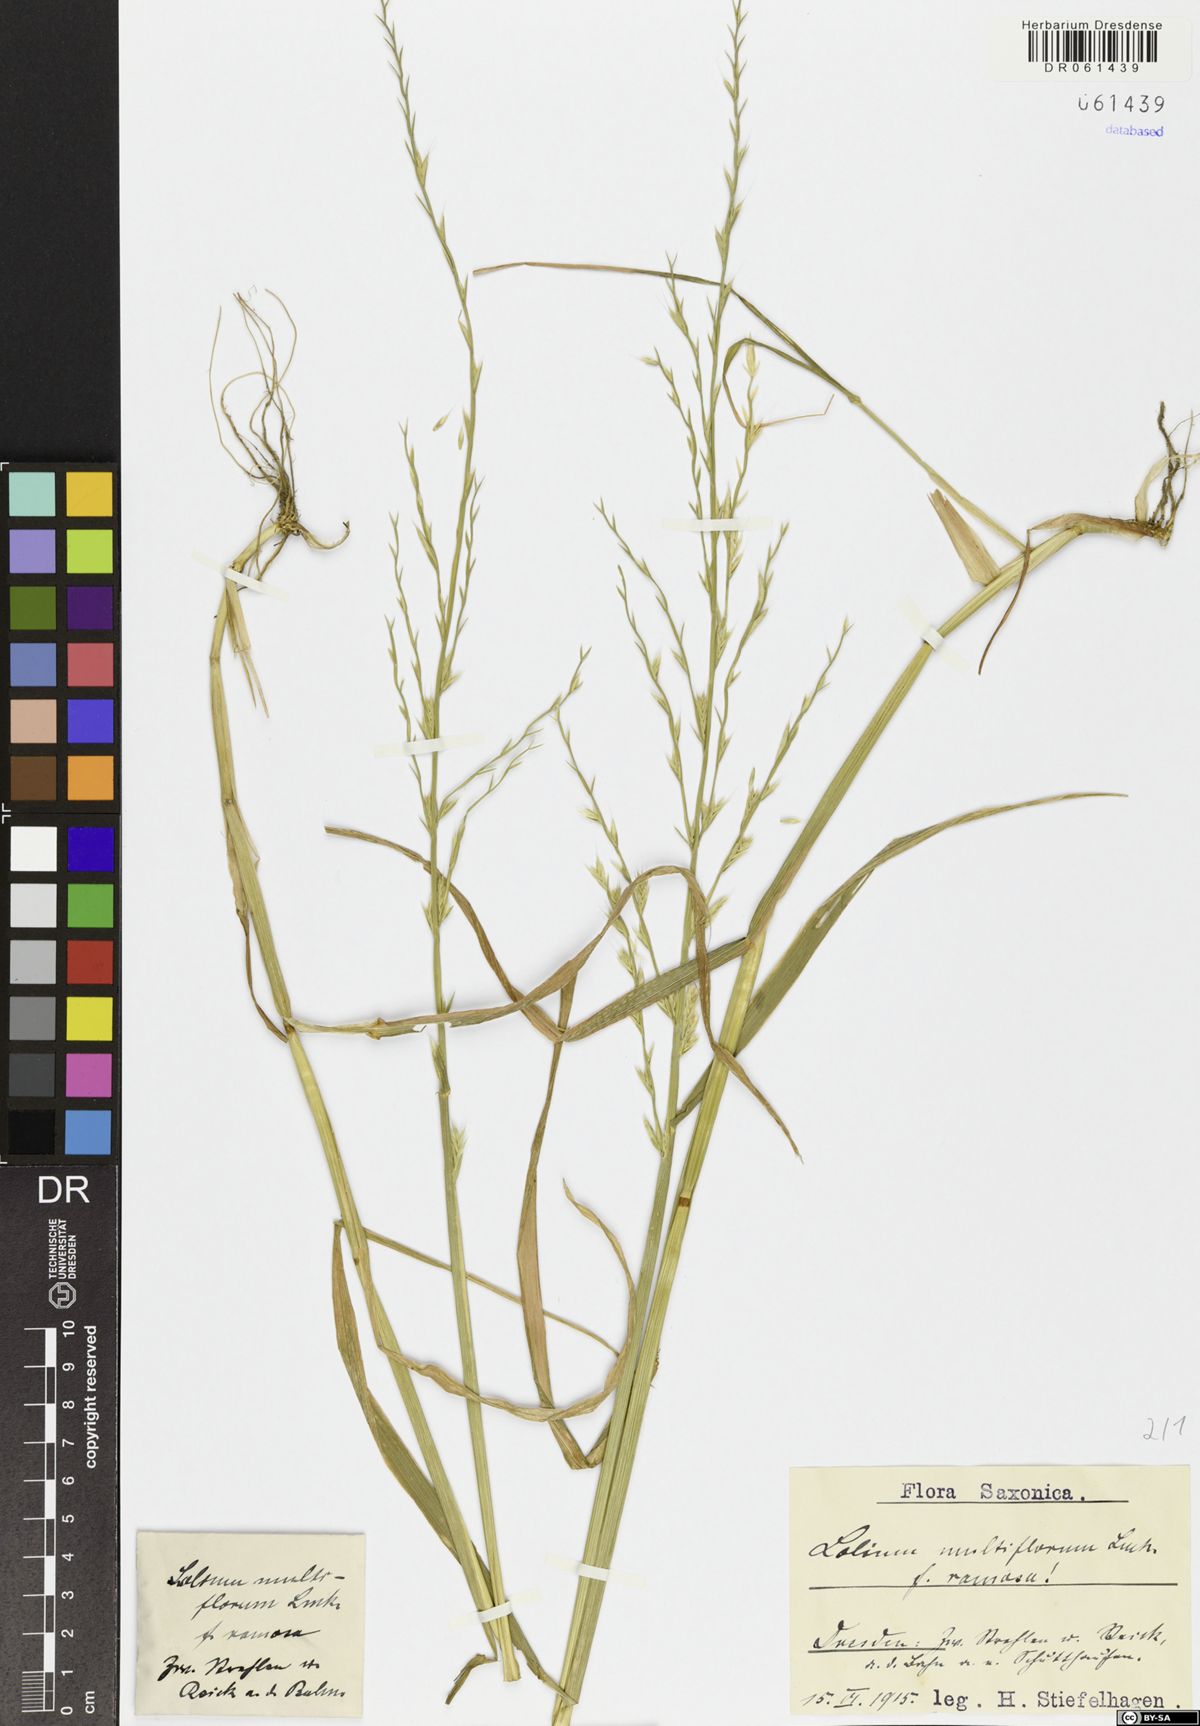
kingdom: Plantae
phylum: Tracheophyta
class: Liliopsida
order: Poales
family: Poaceae
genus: Lolium
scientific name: Lolium multiflorum
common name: Annual ryegrass
